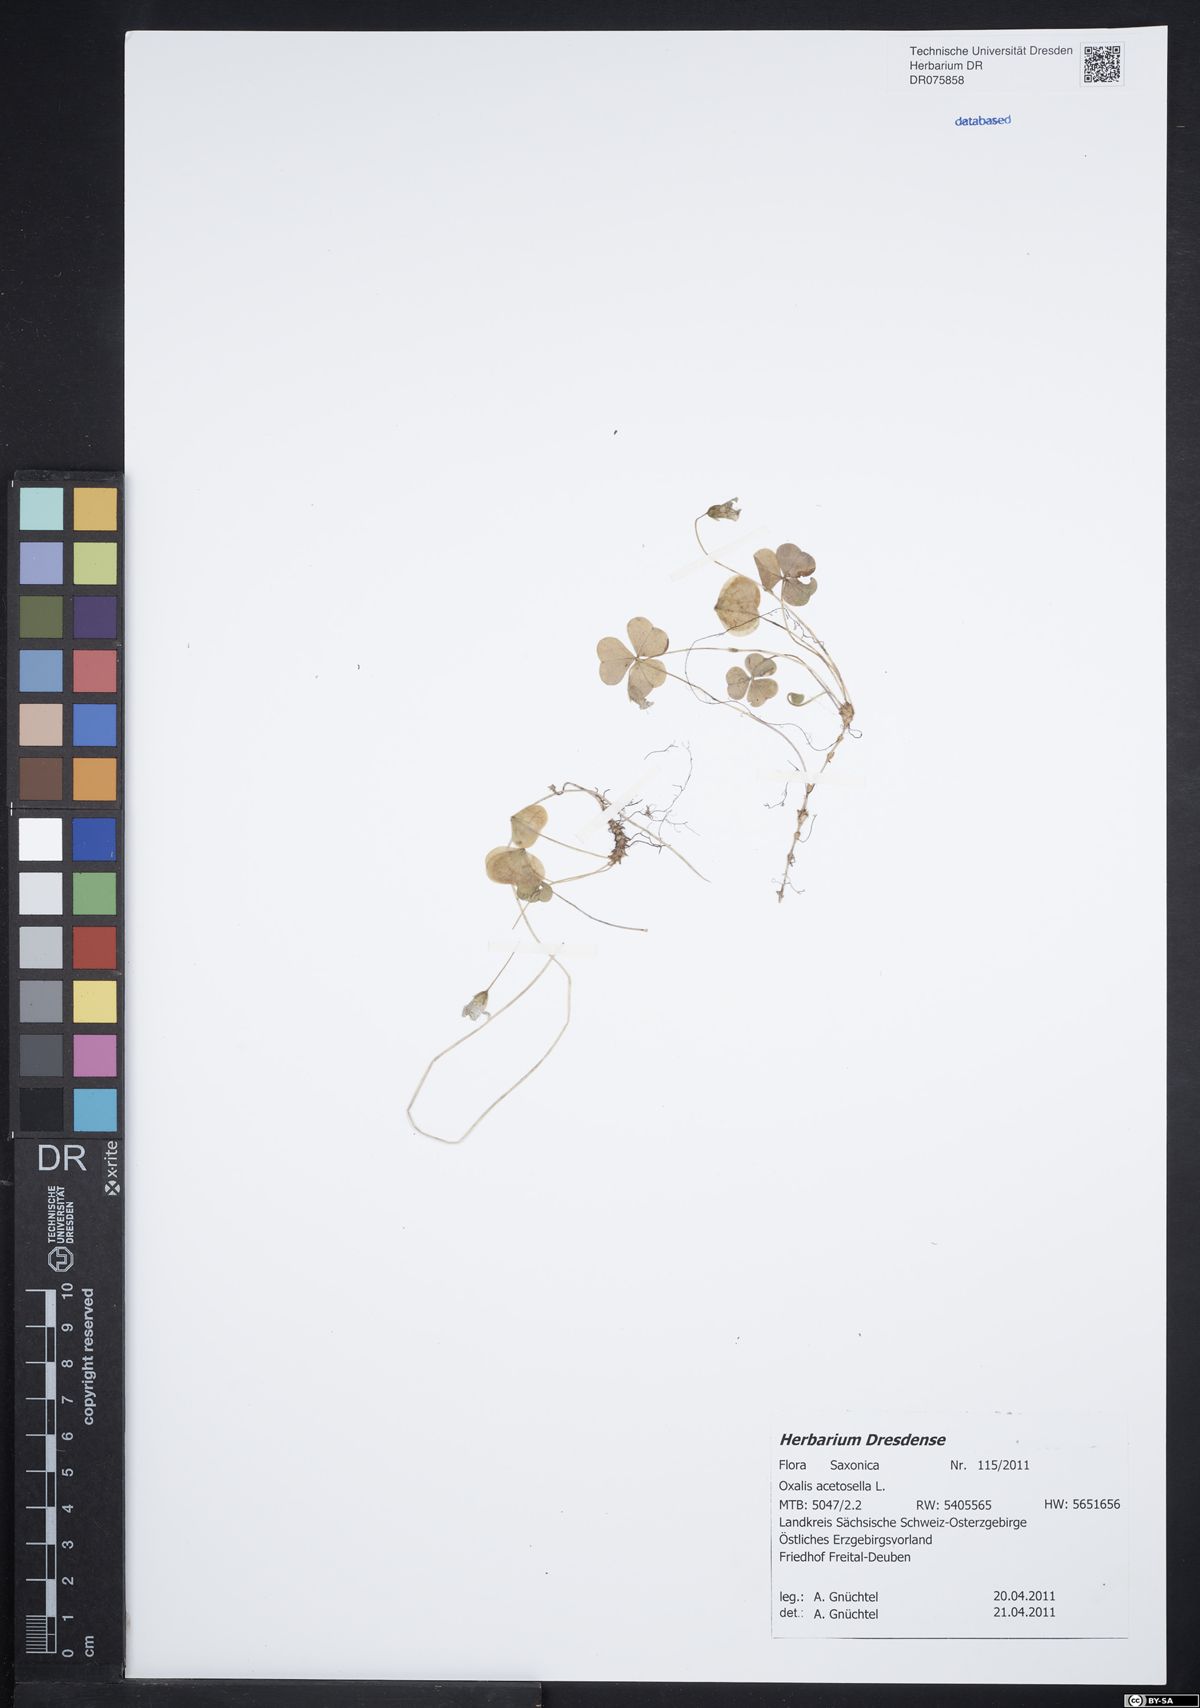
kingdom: Plantae
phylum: Tracheophyta
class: Magnoliopsida
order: Oxalidales
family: Oxalidaceae
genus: Oxalis
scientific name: Oxalis acetosella
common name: Wood-sorrel
